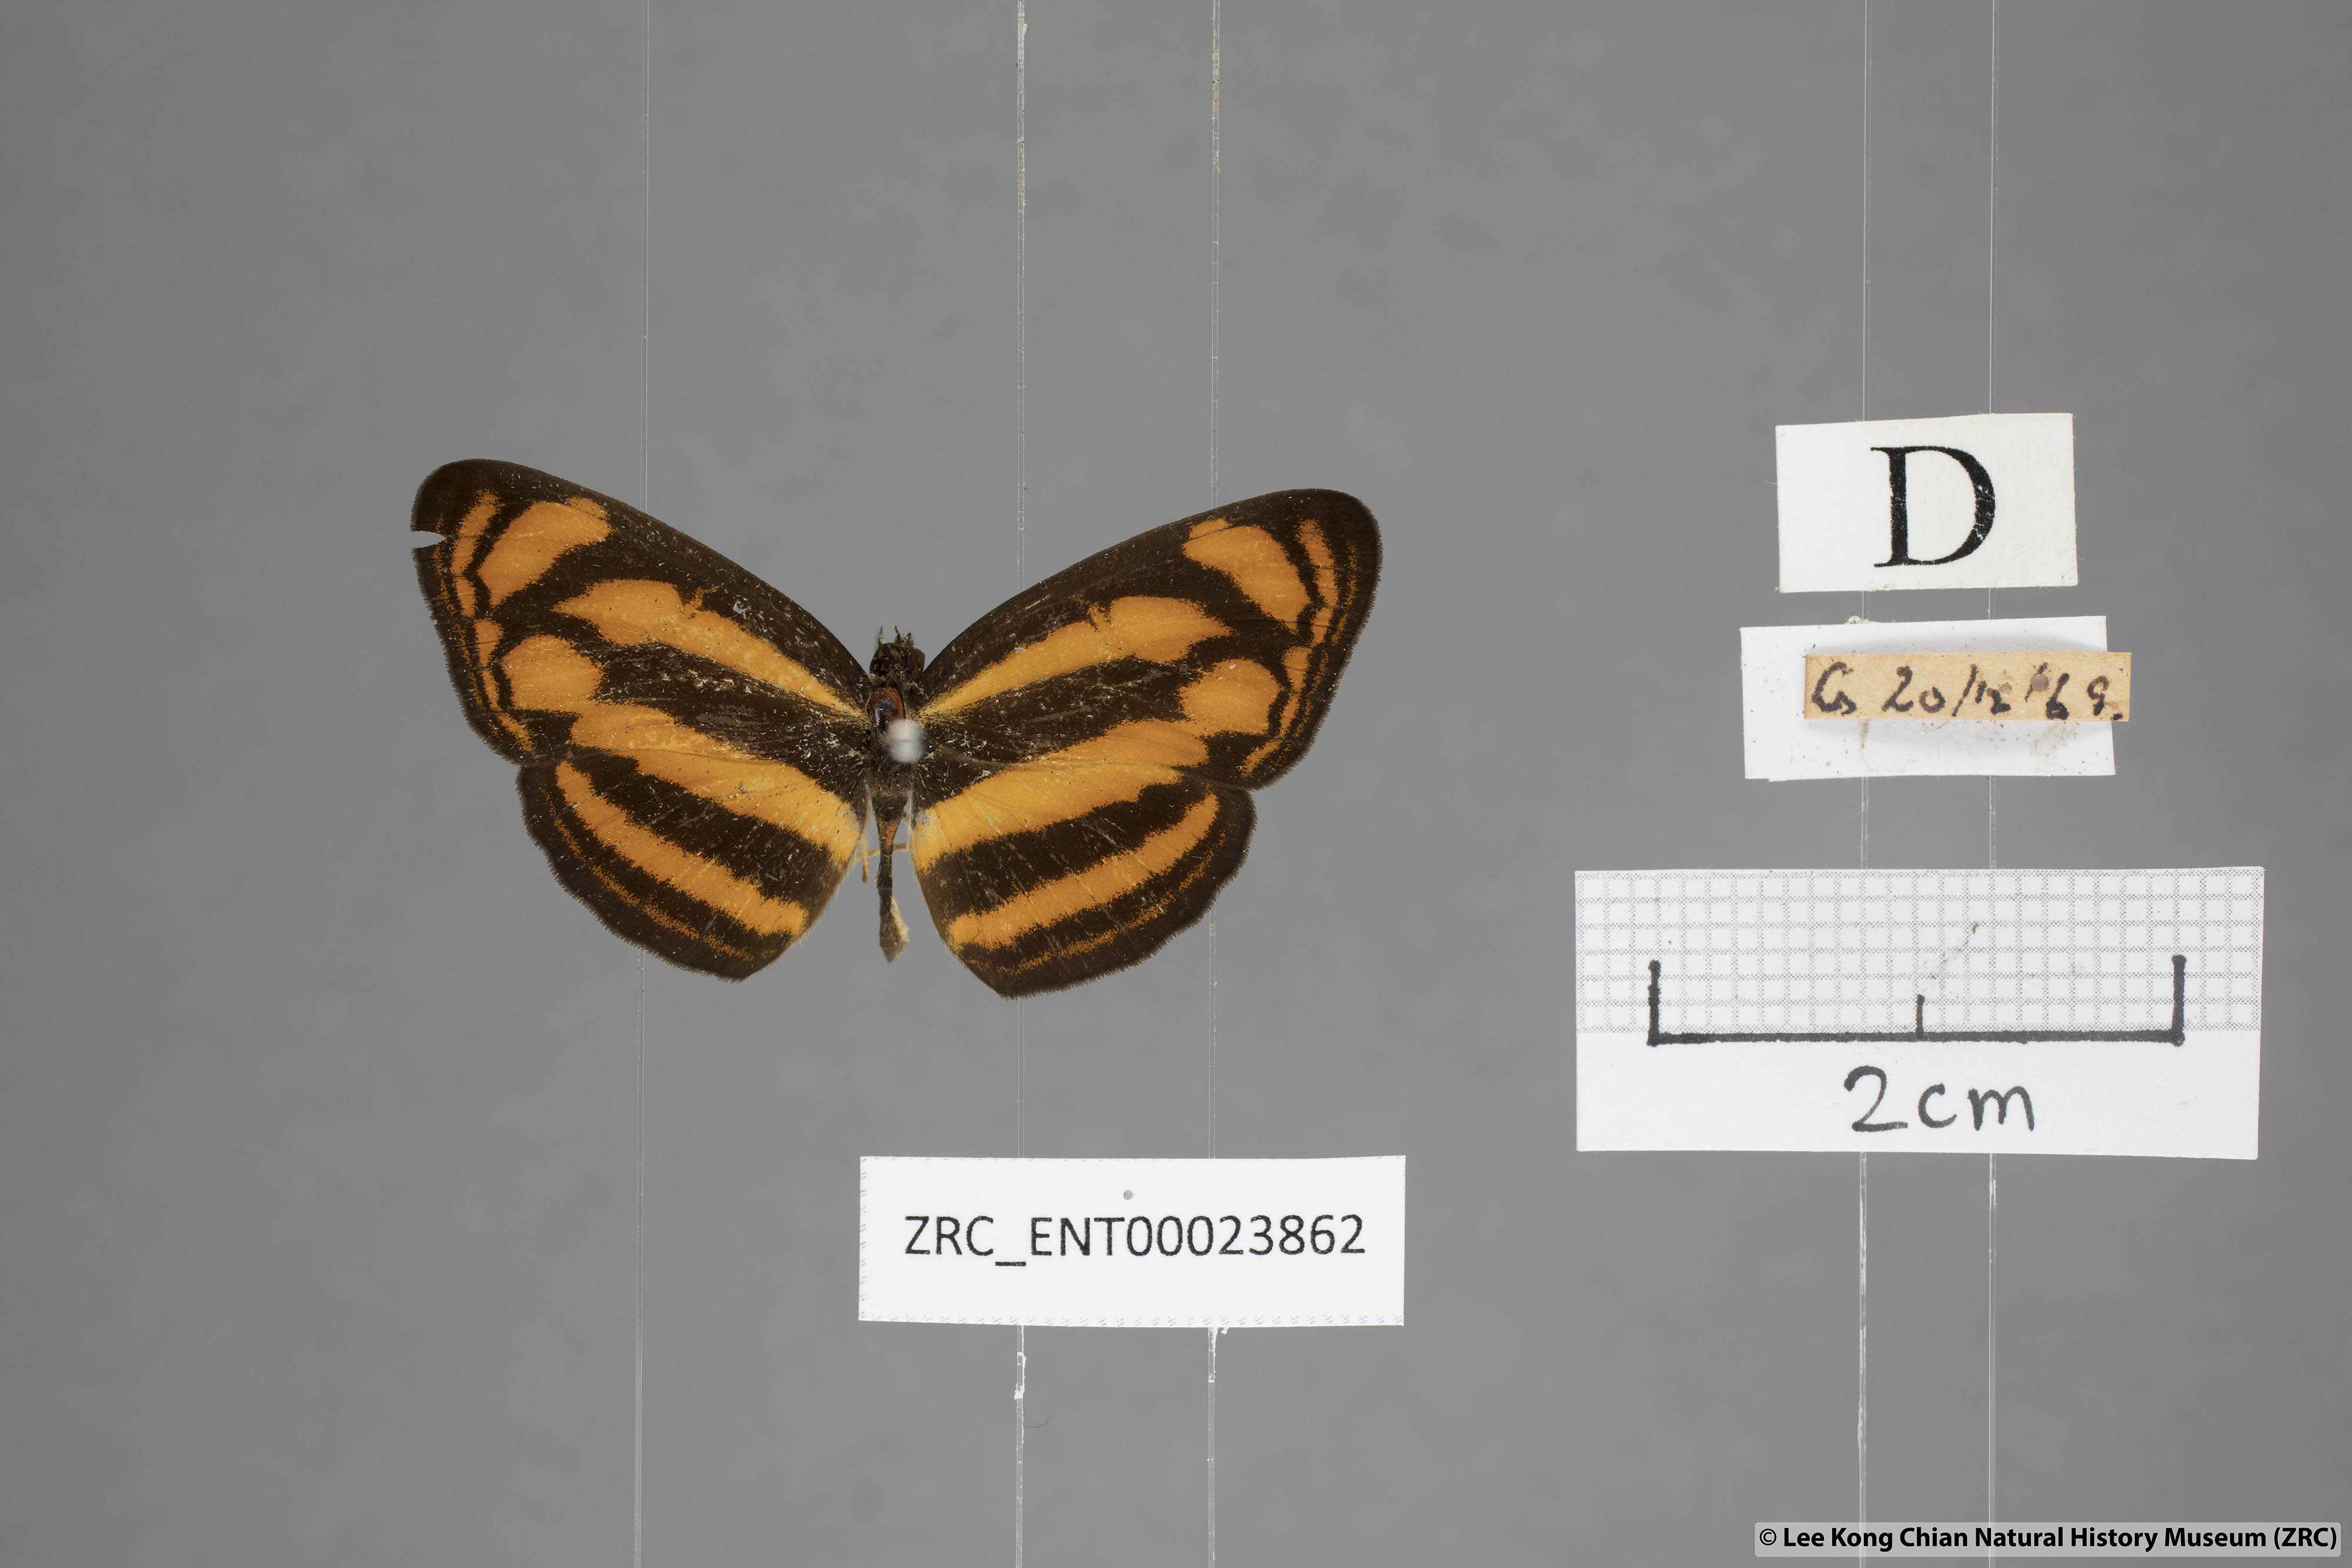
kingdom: Animalia
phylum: Arthropoda
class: Insecta
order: Lepidoptera
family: Nymphalidae
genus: Lasippa
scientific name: Lasippa tiga
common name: Malayan lascar
